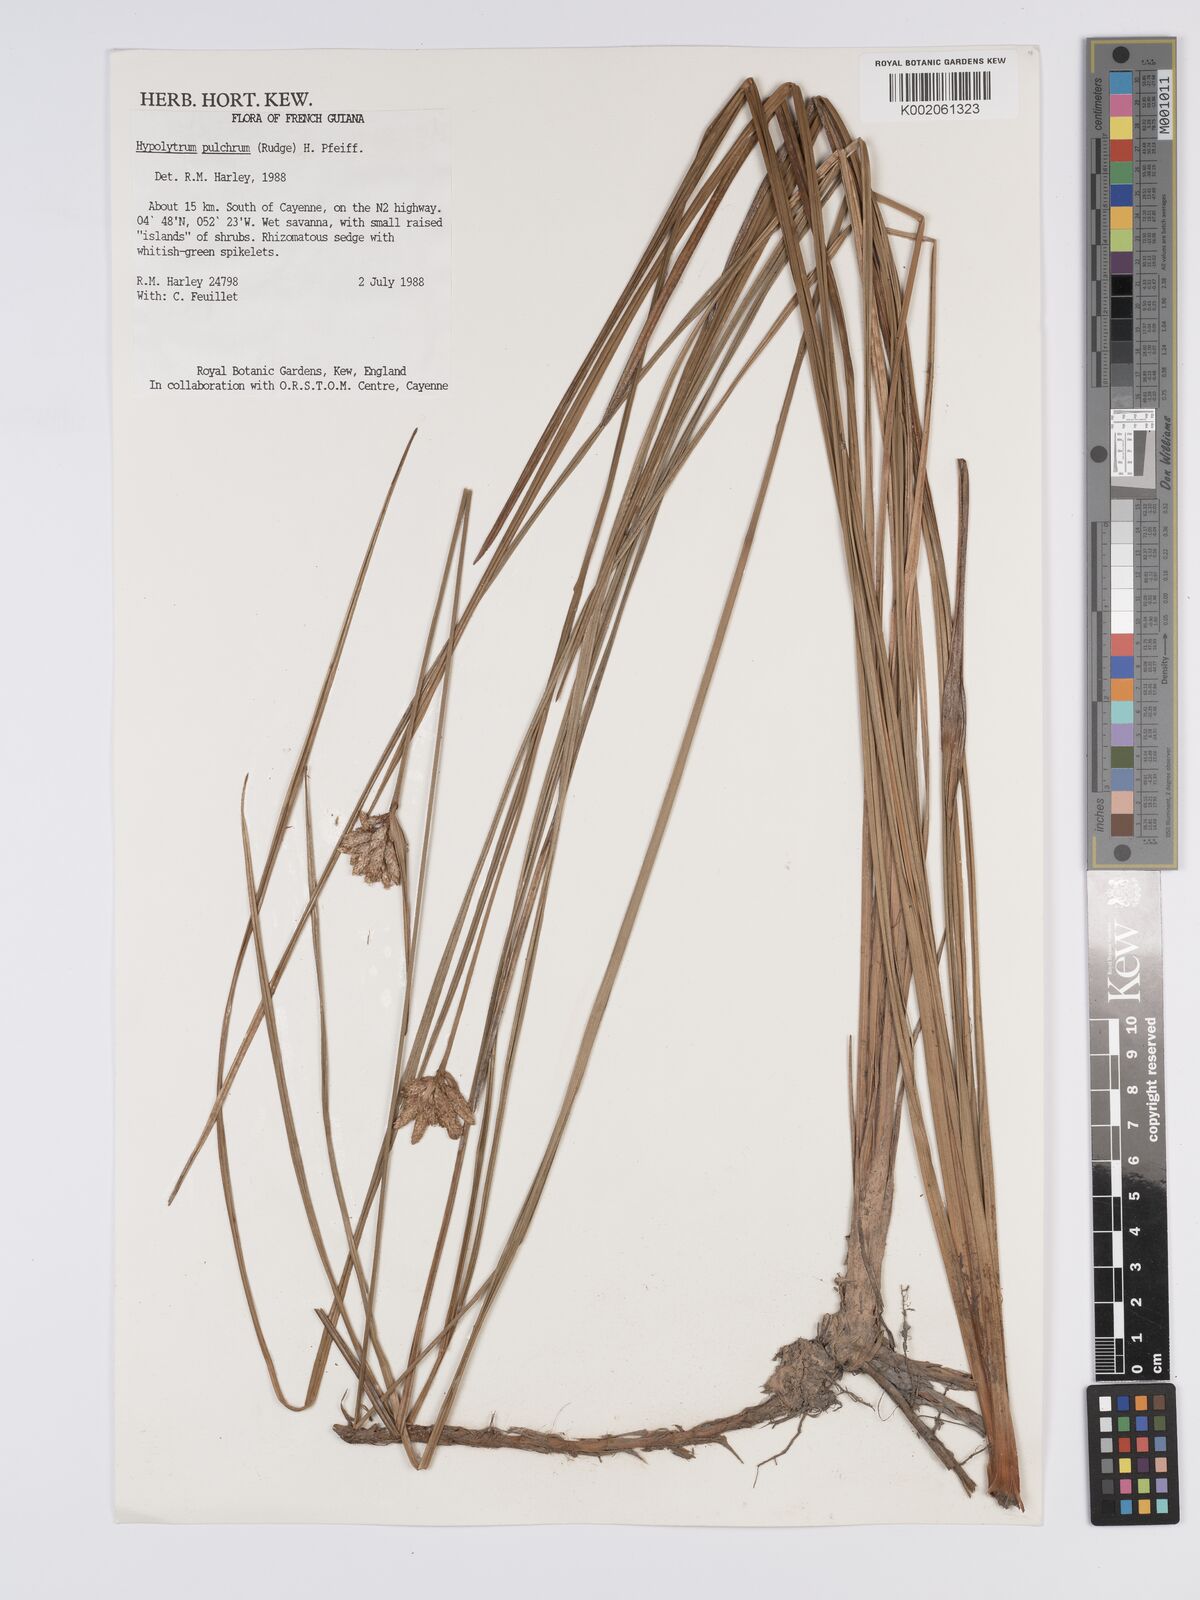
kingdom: Plantae
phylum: Tracheophyta
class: Liliopsida
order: Poales
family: Cyperaceae
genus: Hypolytrum
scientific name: Hypolytrum pulchrum
